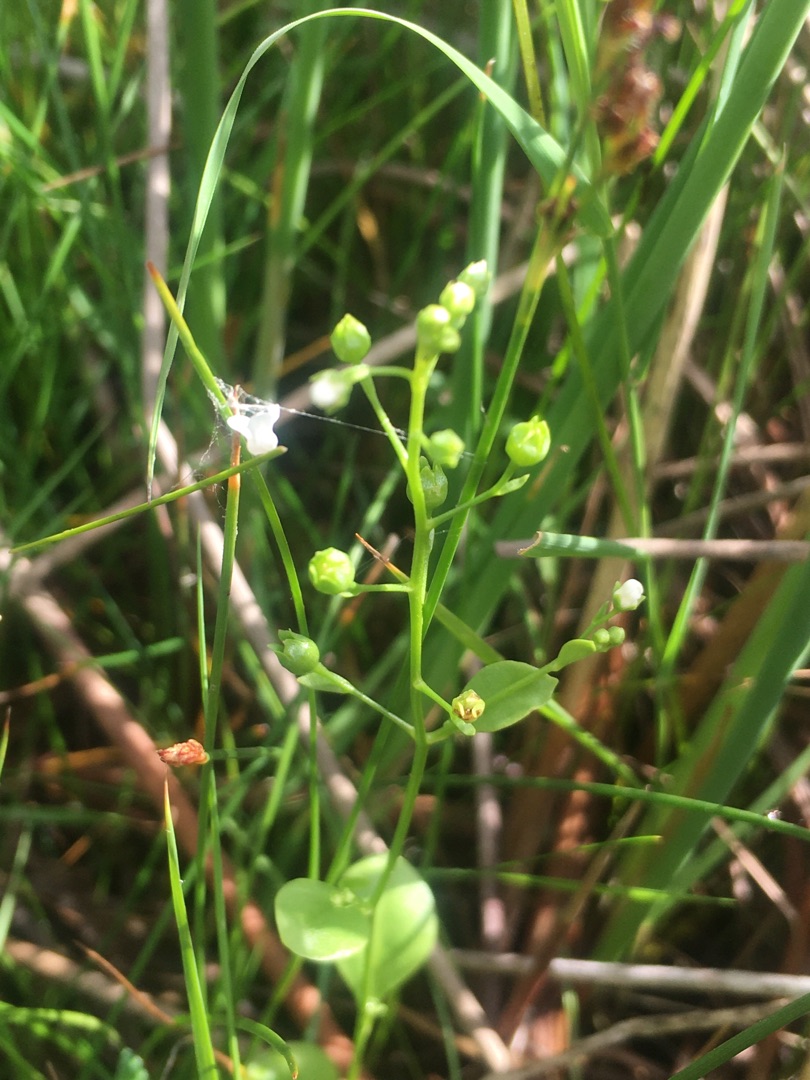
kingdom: Plantae
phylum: Tracheophyta
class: Magnoliopsida
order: Ericales
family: Primulaceae
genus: Samolus
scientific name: Samolus valerandi
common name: Samel
